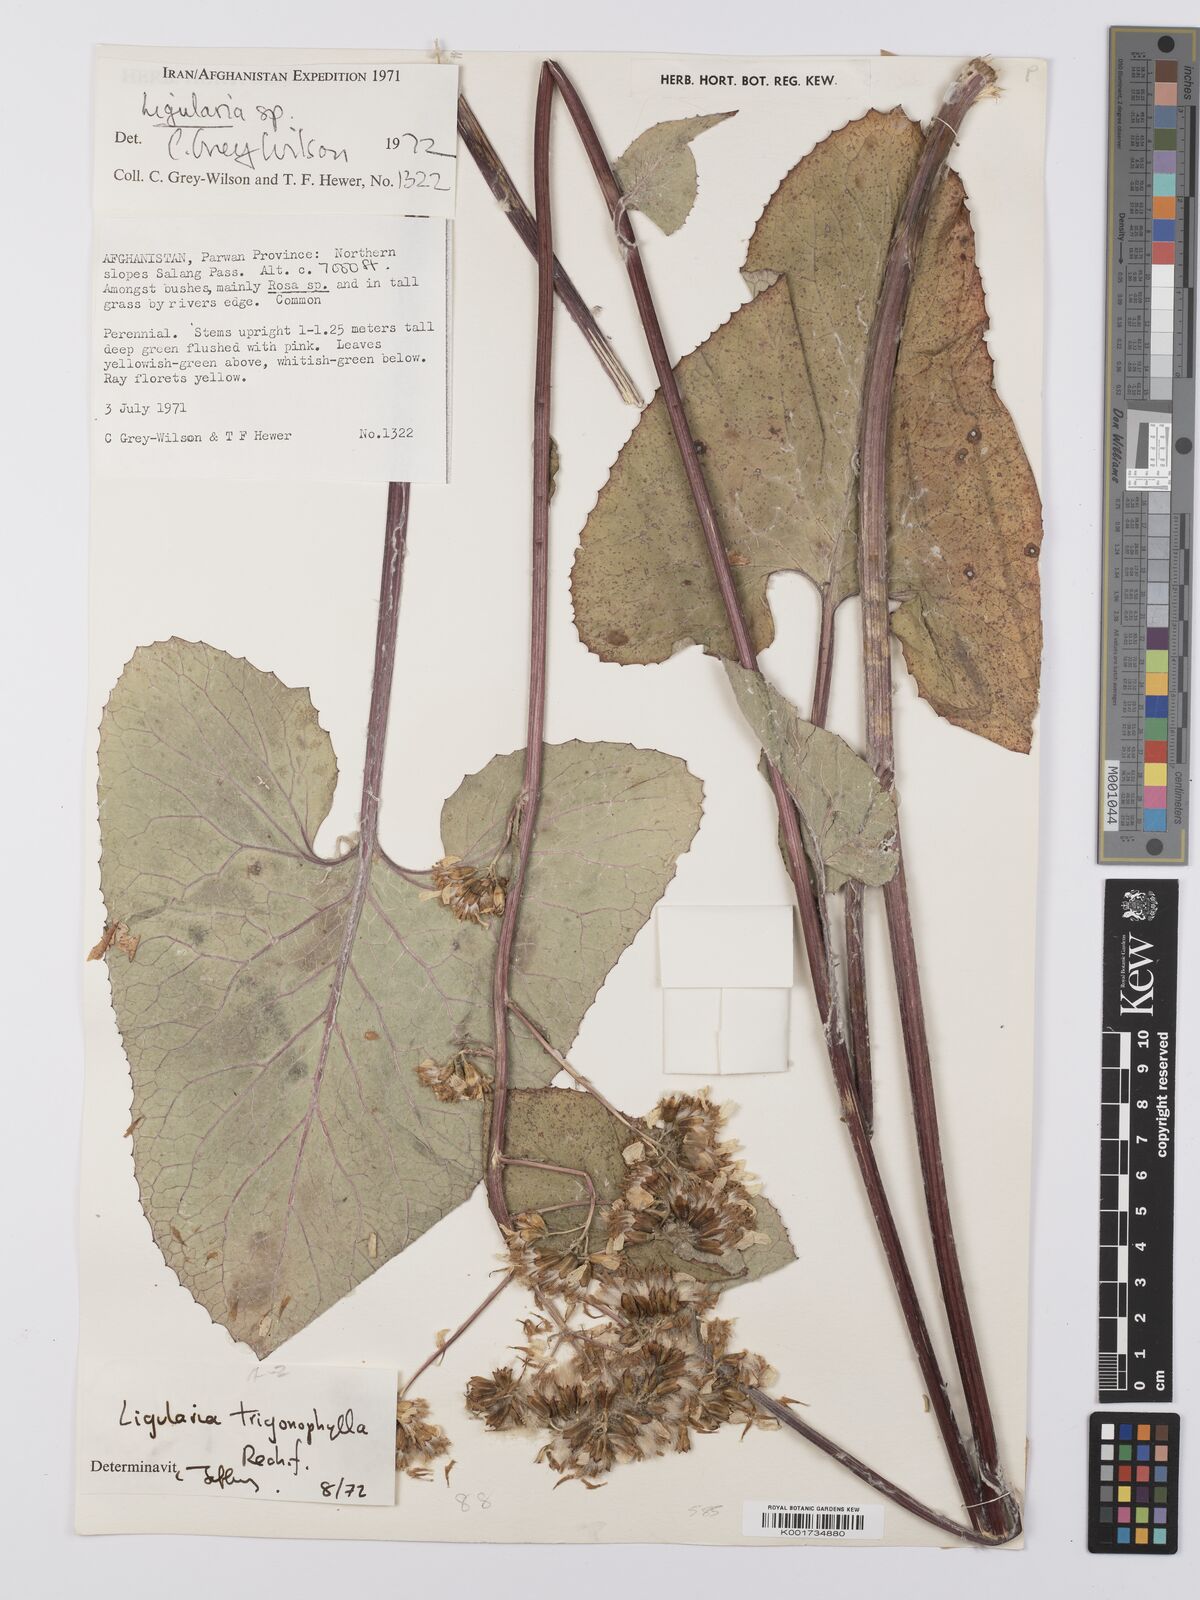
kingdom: Plantae
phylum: Tracheophyta
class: Magnoliopsida
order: Asterales
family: Asteraceae
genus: Vickifunkia
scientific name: Vickifunkia thomsonii
